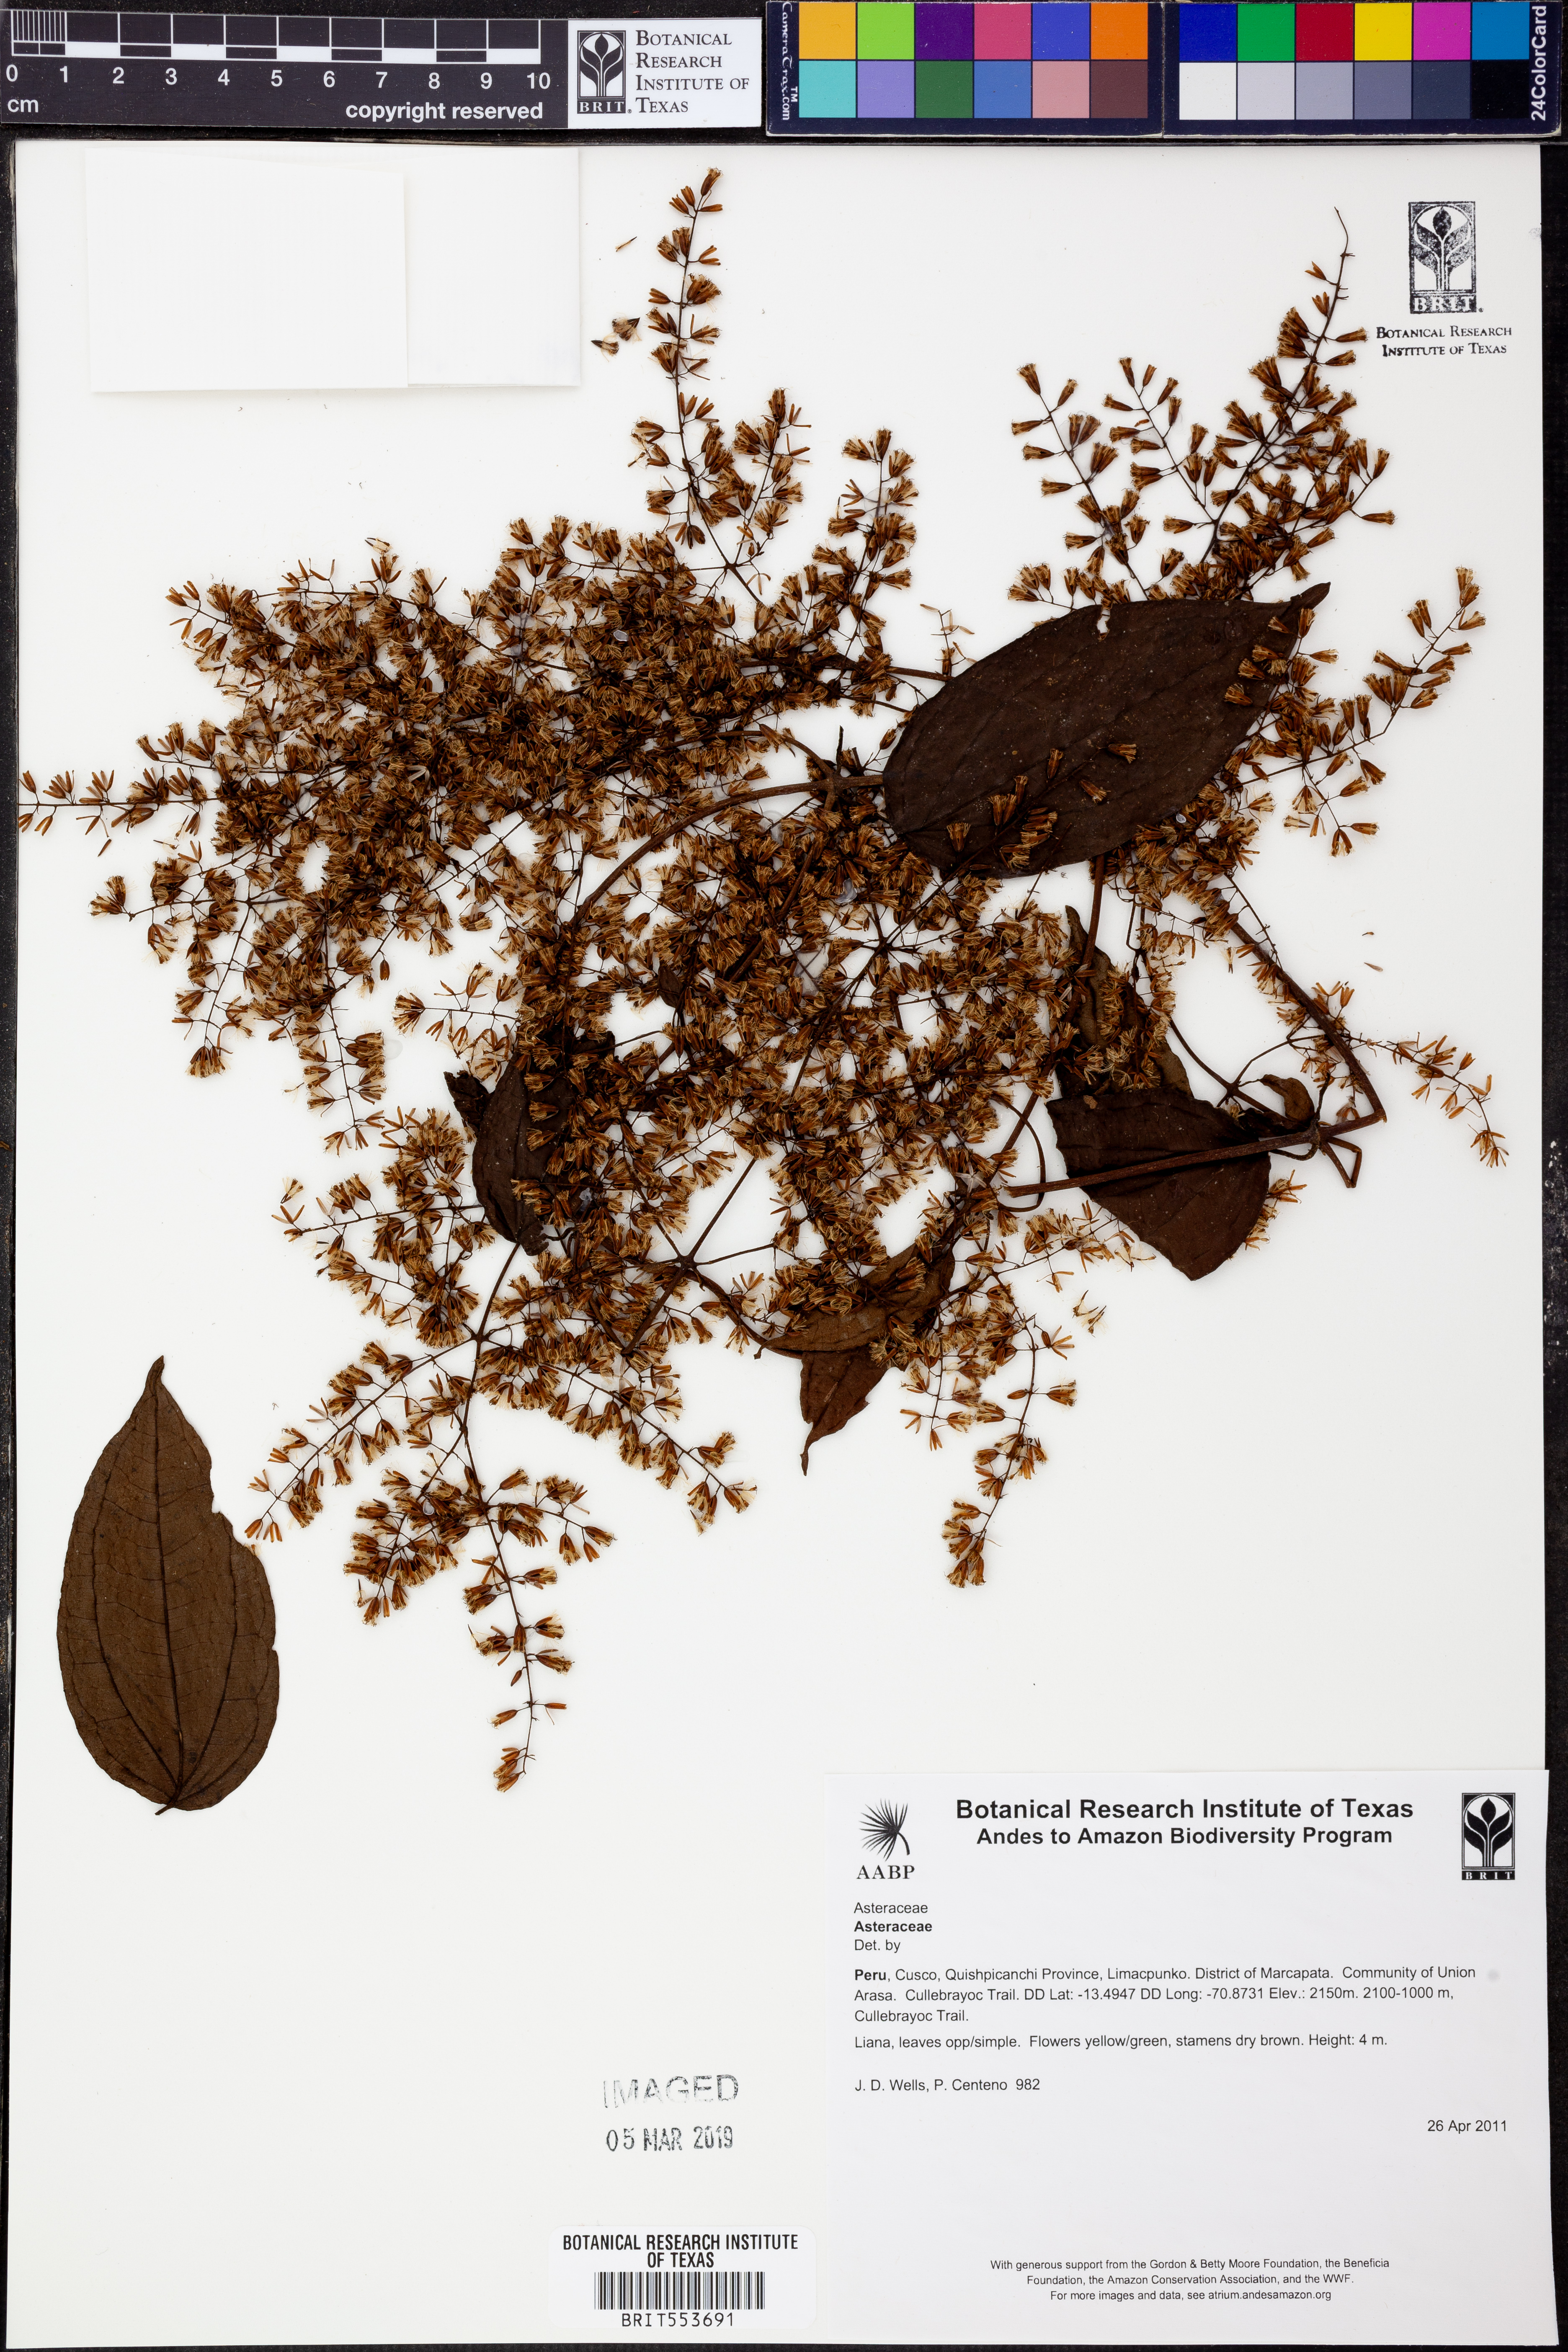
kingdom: Plantae
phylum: Tracheophyta
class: Magnoliopsida
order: Asterales
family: Asteraceae
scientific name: Asteraceae
